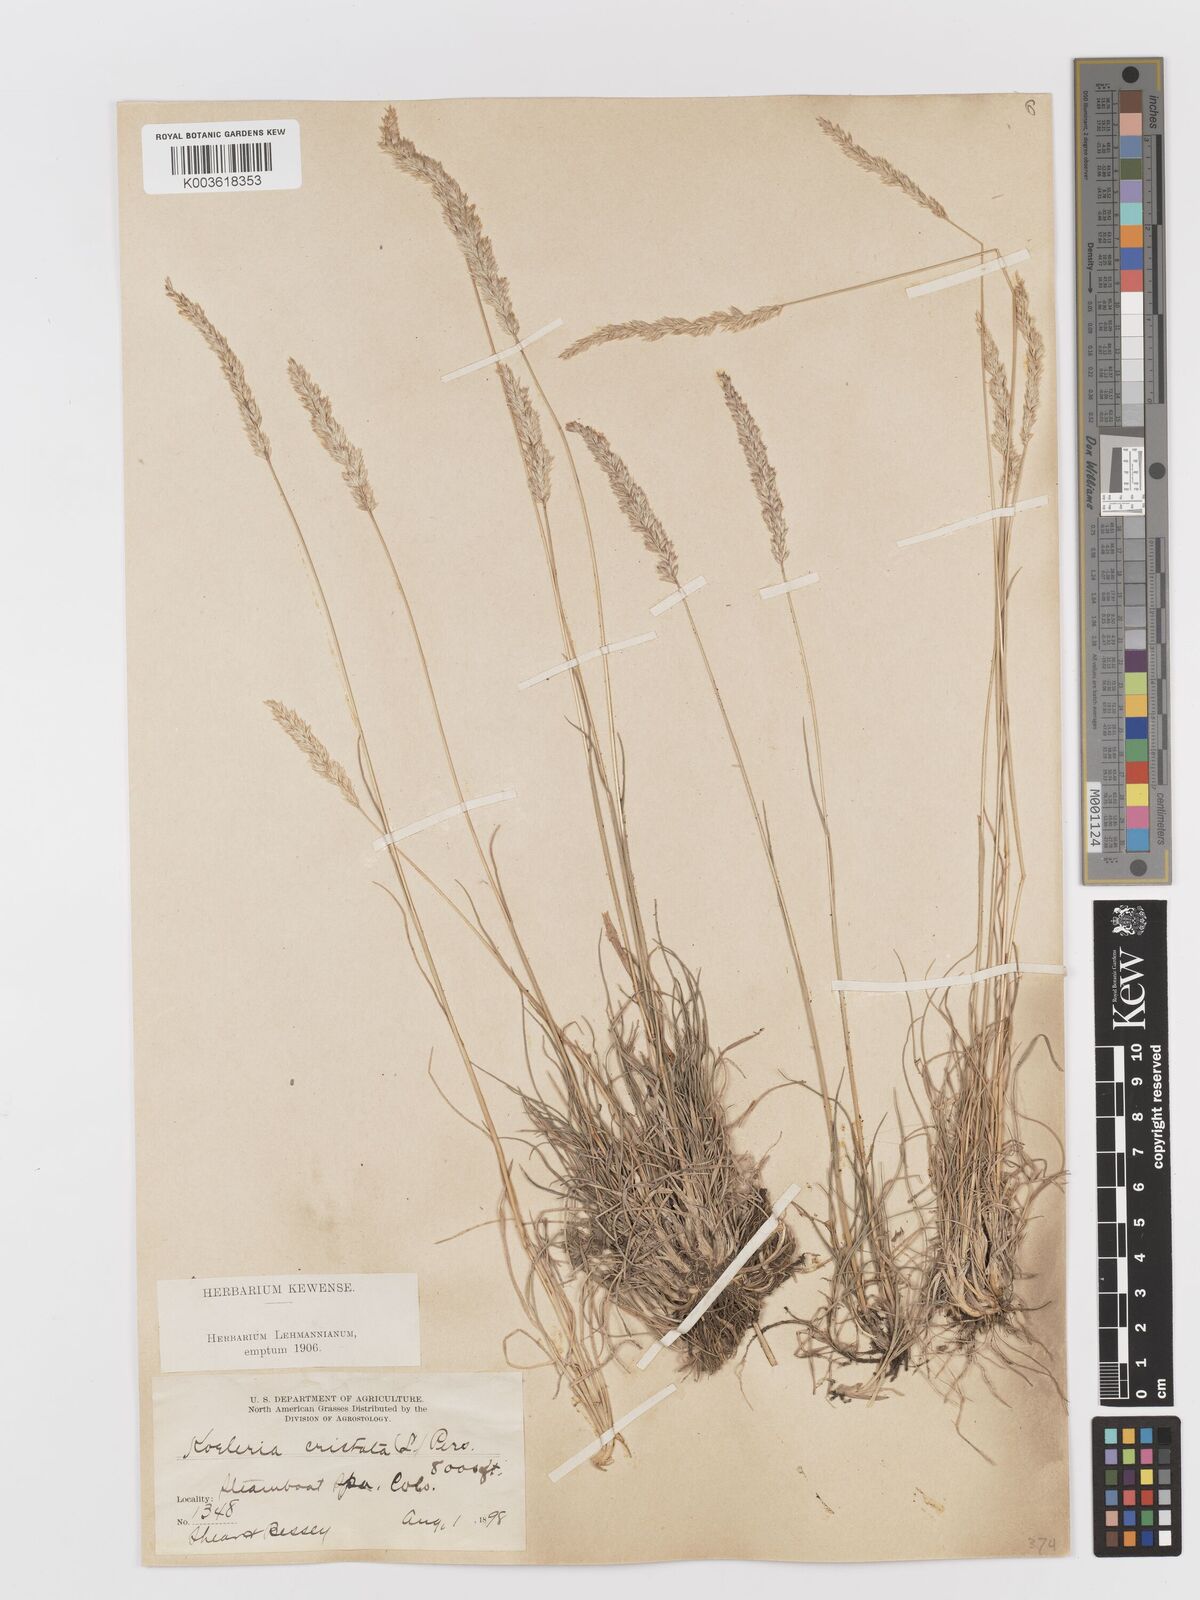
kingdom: Plantae
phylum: Tracheophyta
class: Liliopsida
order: Poales
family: Poaceae
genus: Koeleria
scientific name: Koeleria
